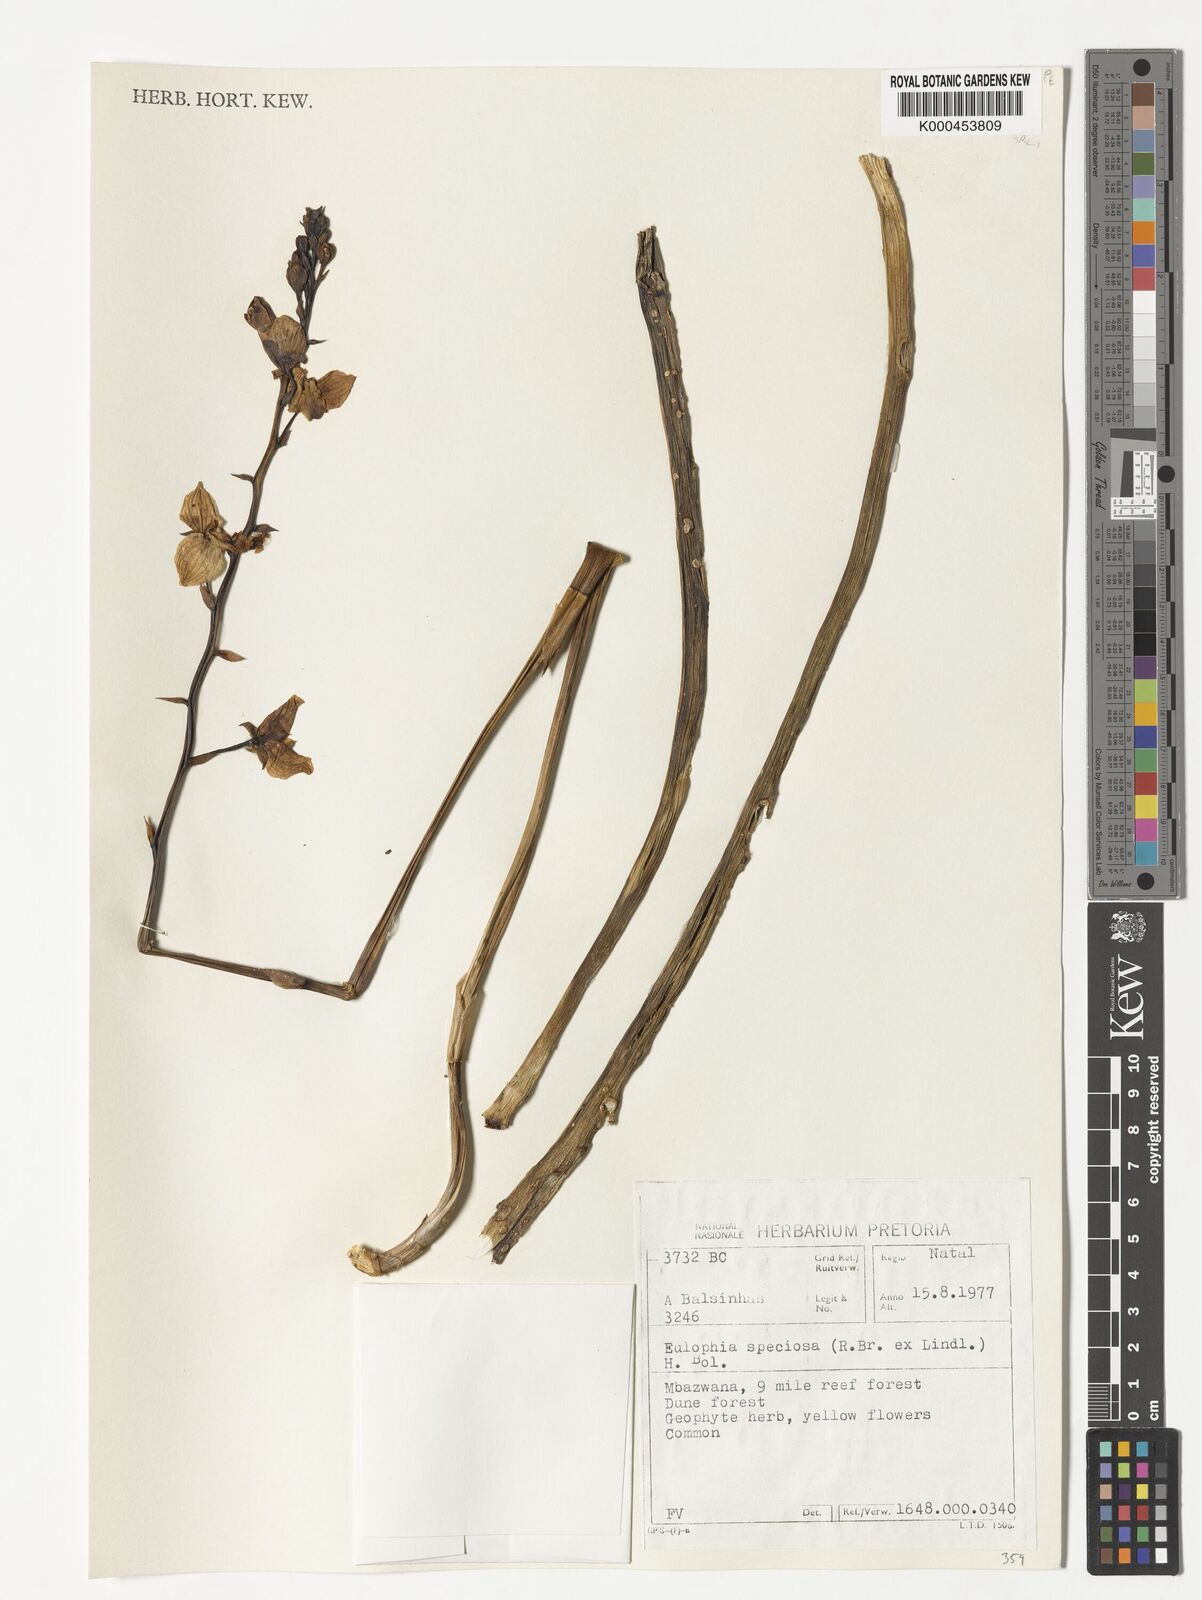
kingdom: Plantae
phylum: Tracheophyta
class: Liliopsida
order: Asparagales
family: Orchidaceae
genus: Eulophia
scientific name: Eulophia speciosa
